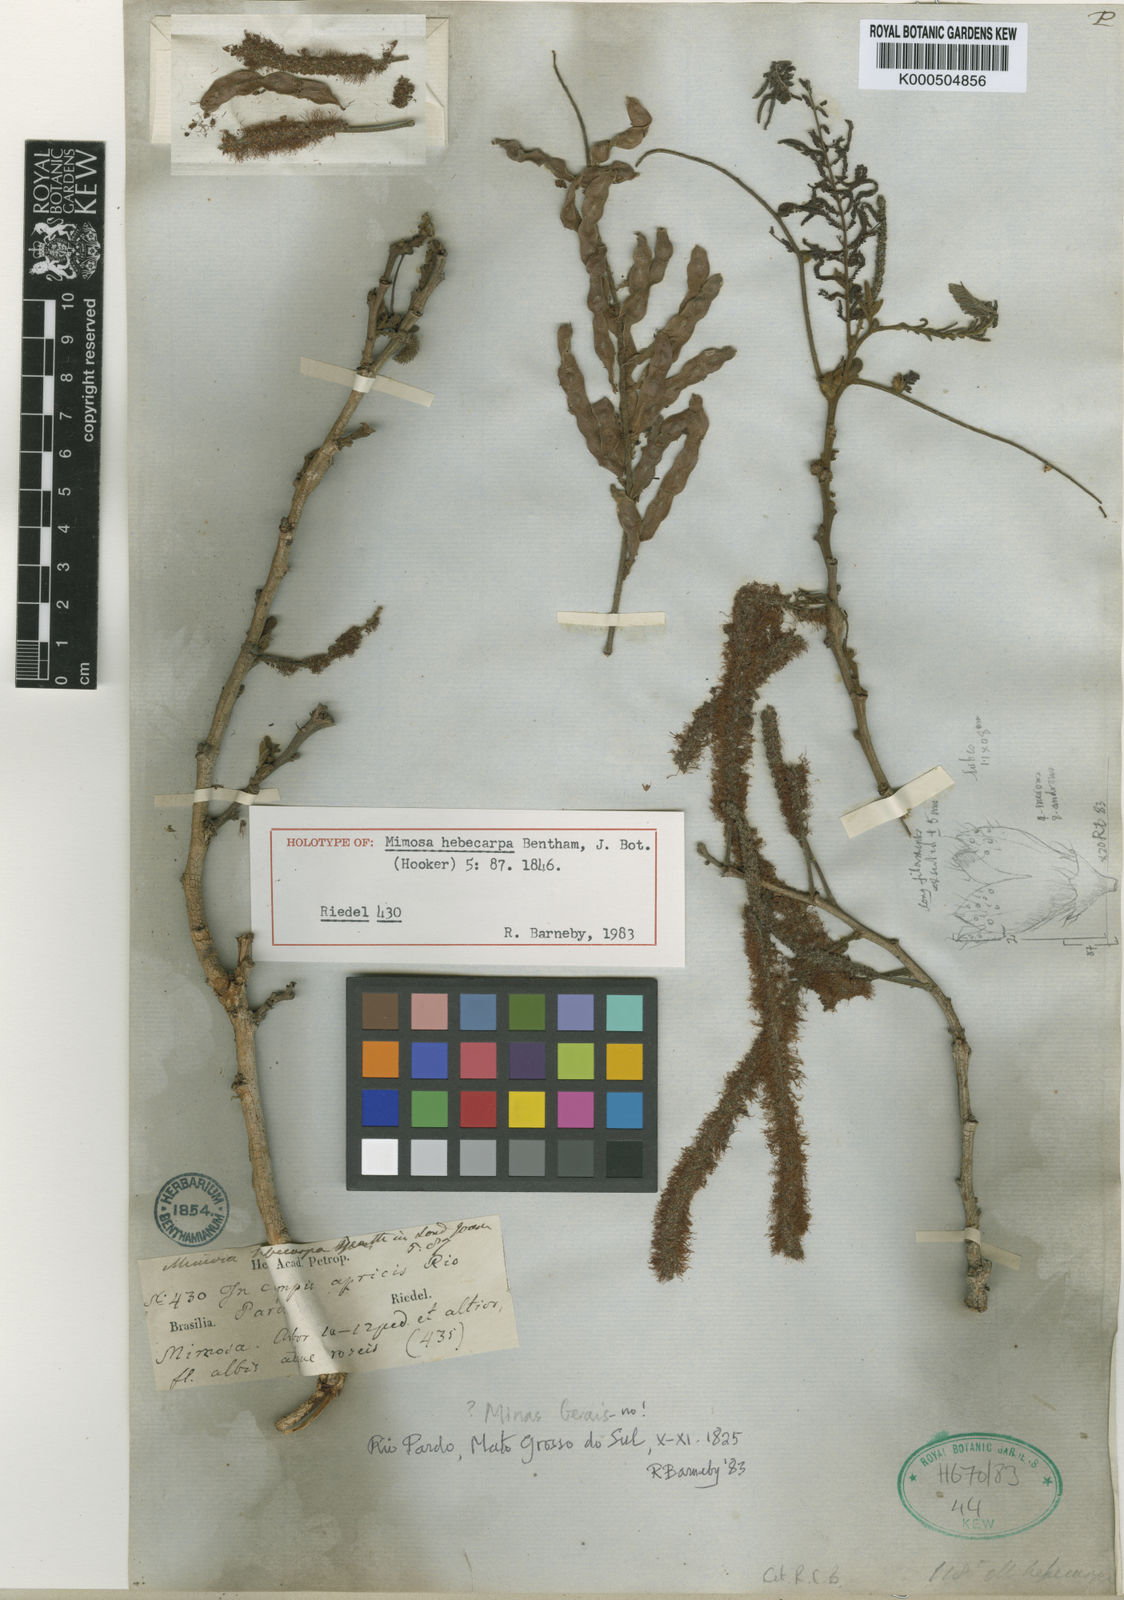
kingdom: Plantae
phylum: Tracheophyta
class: Magnoliopsida
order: Fabales
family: Fabaceae
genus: Mimosa
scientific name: Mimosa hebecarpa
